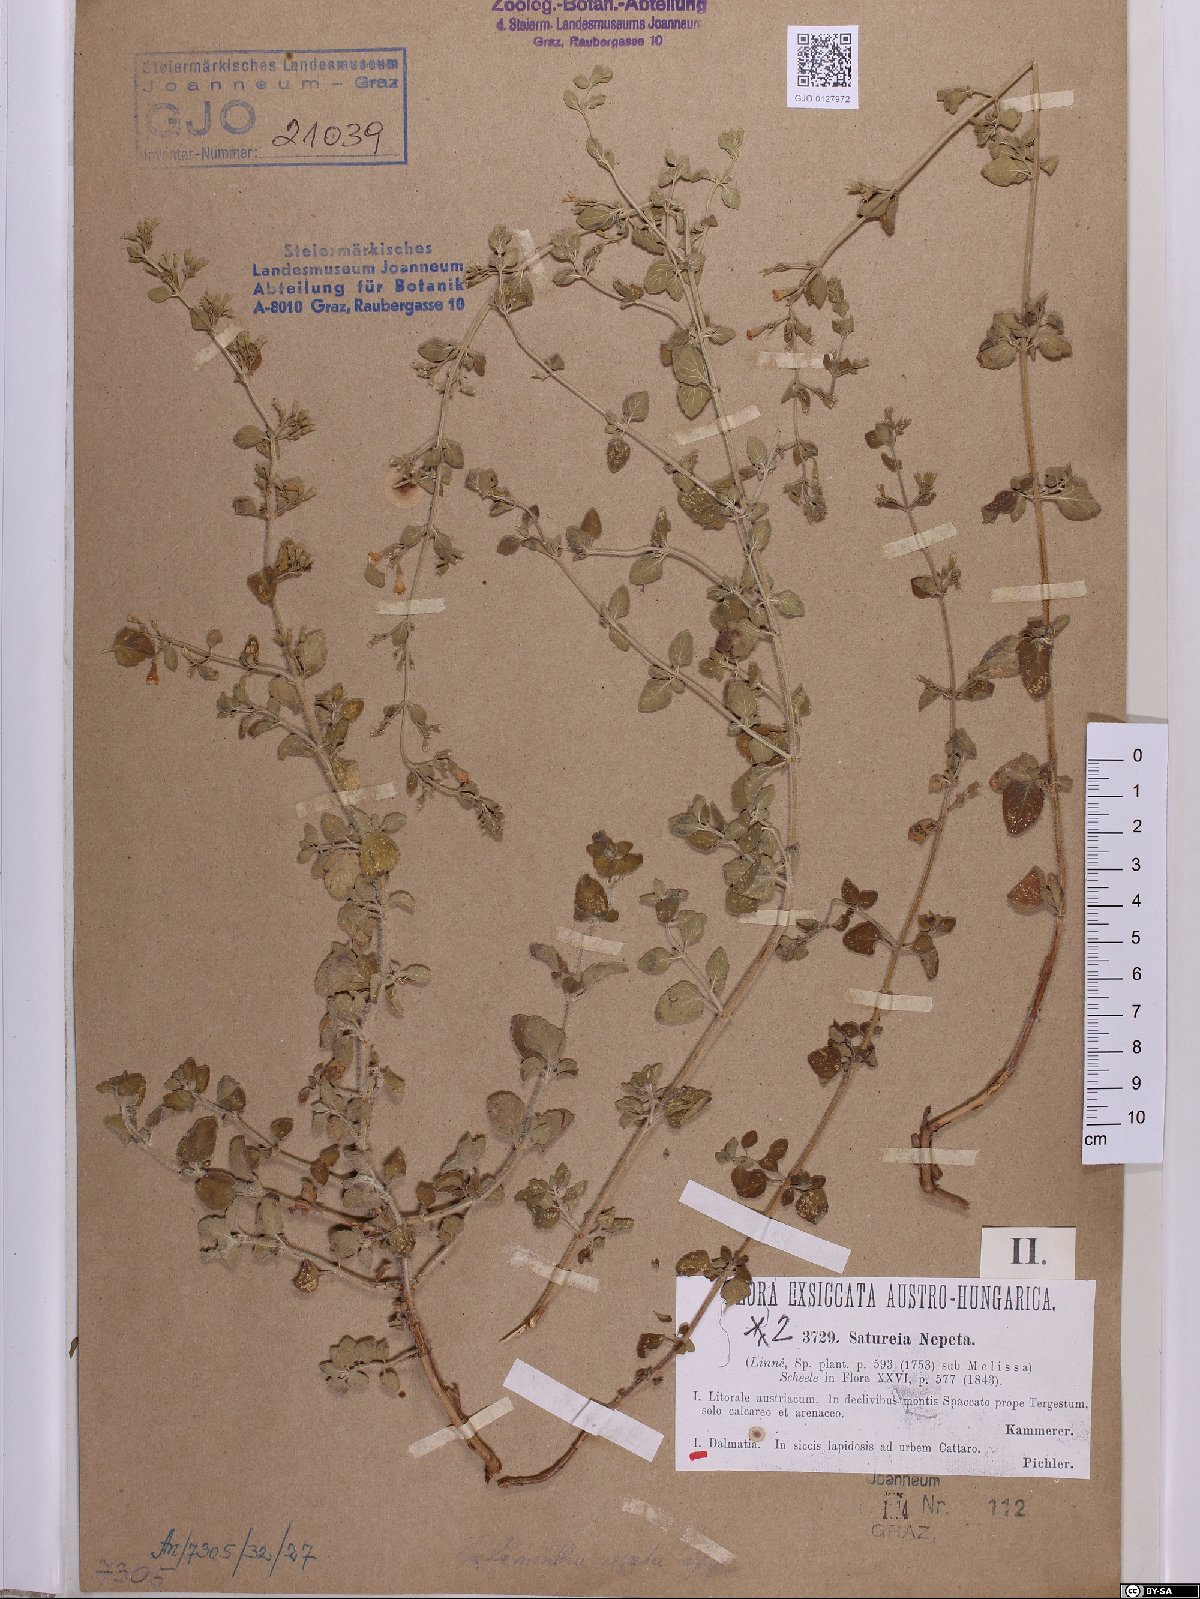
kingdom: Plantae
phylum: Tracheophyta
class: Magnoliopsida
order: Lamiales
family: Lamiaceae
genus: Clinopodium
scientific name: Clinopodium nepeta
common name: Lesser calamint
